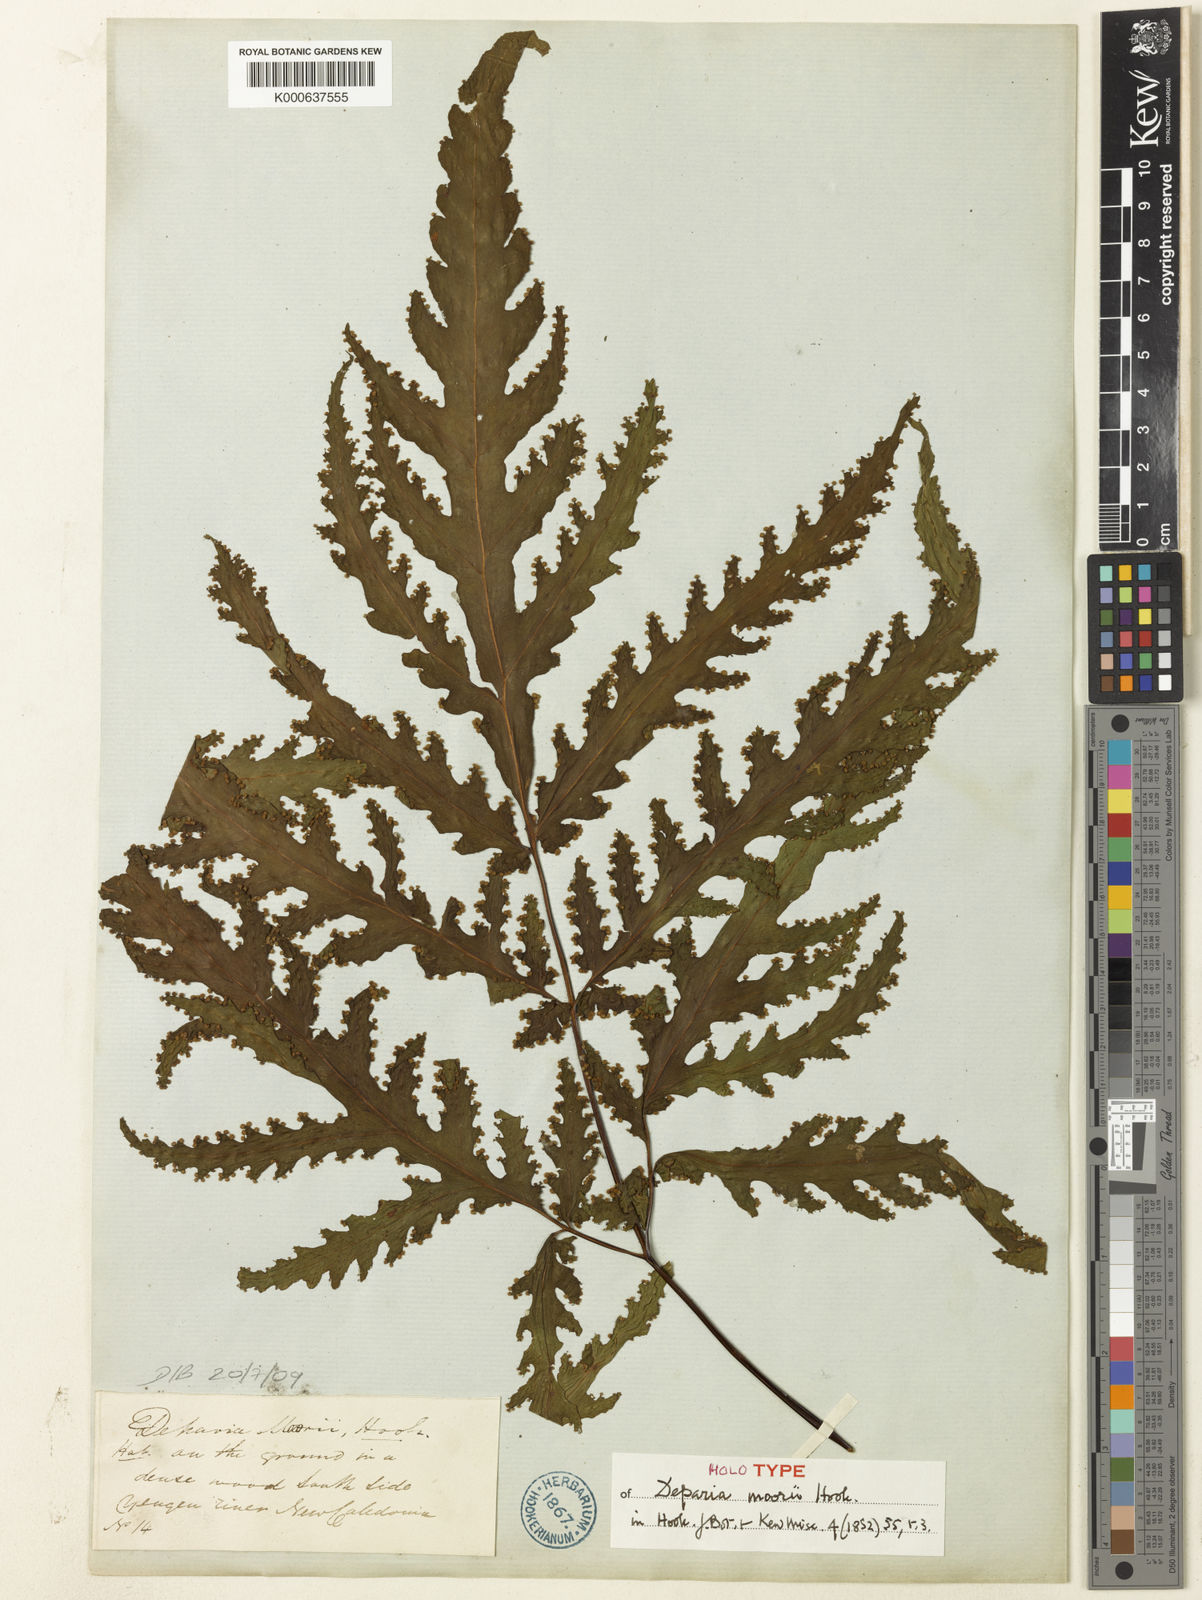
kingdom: Plantae
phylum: Tracheophyta
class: Polypodiopsida
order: Polypodiales
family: Tectariaceae
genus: Tectaria
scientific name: Tectaria moorei
